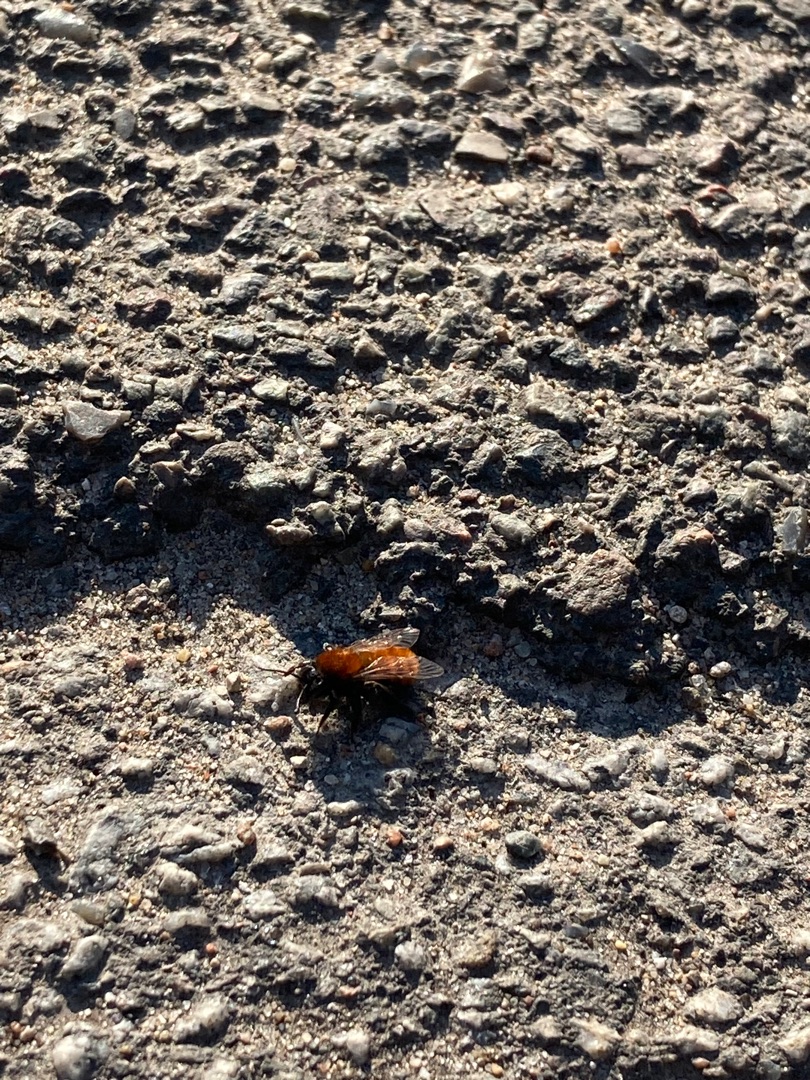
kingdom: Animalia
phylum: Arthropoda
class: Insecta
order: Hymenoptera
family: Andrenidae
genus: Andrena
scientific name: Andrena fulva
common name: Rødpelset jordbi
